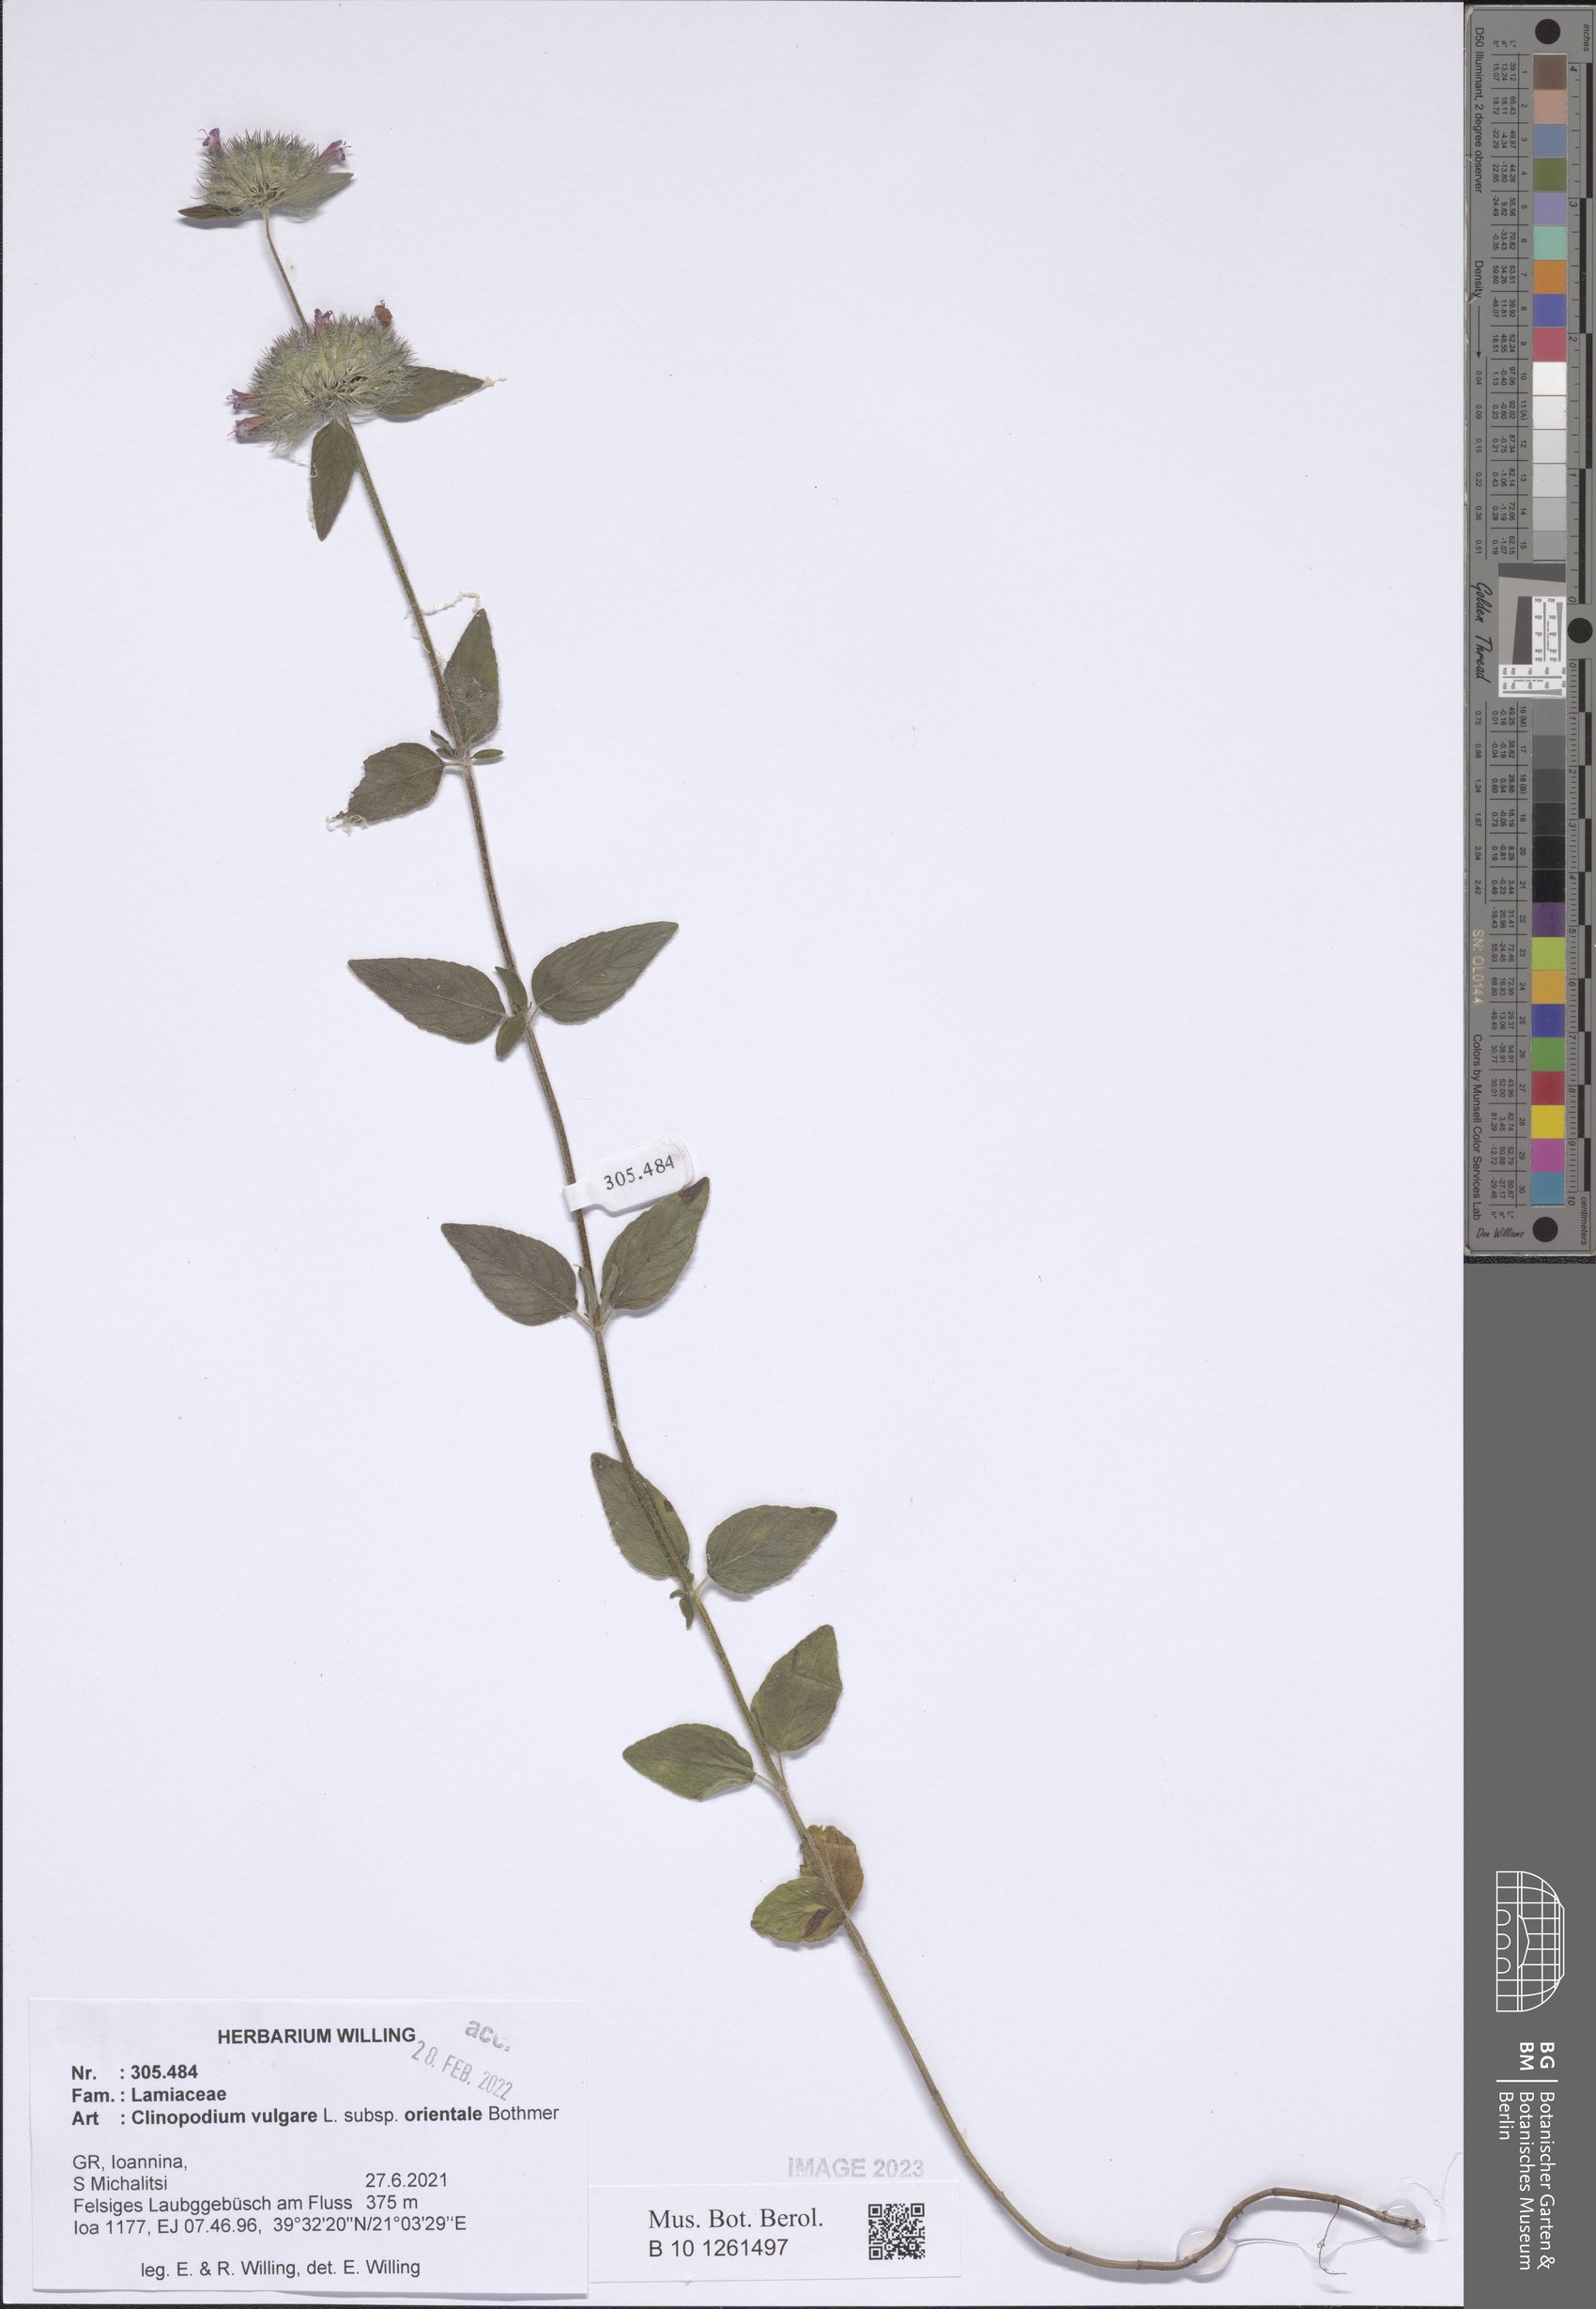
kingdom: Plantae
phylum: Tracheophyta
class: Magnoliopsida
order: Lamiales
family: Lamiaceae
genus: Clinopodium
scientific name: Clinopodium vulgare
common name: Wild basil
